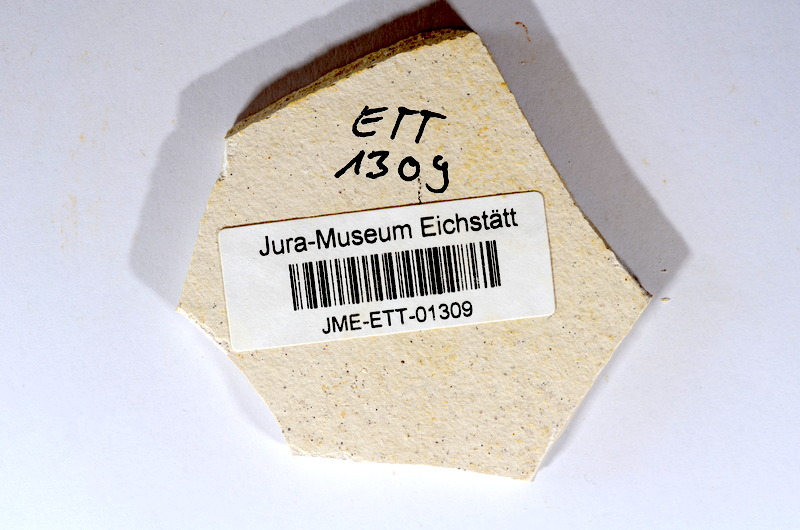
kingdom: Animalia
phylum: Chordata
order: Salmoniformes
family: Orthogonikleithridae
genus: Orthogonikleithrus
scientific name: Orthogonikleithrus hoelli
